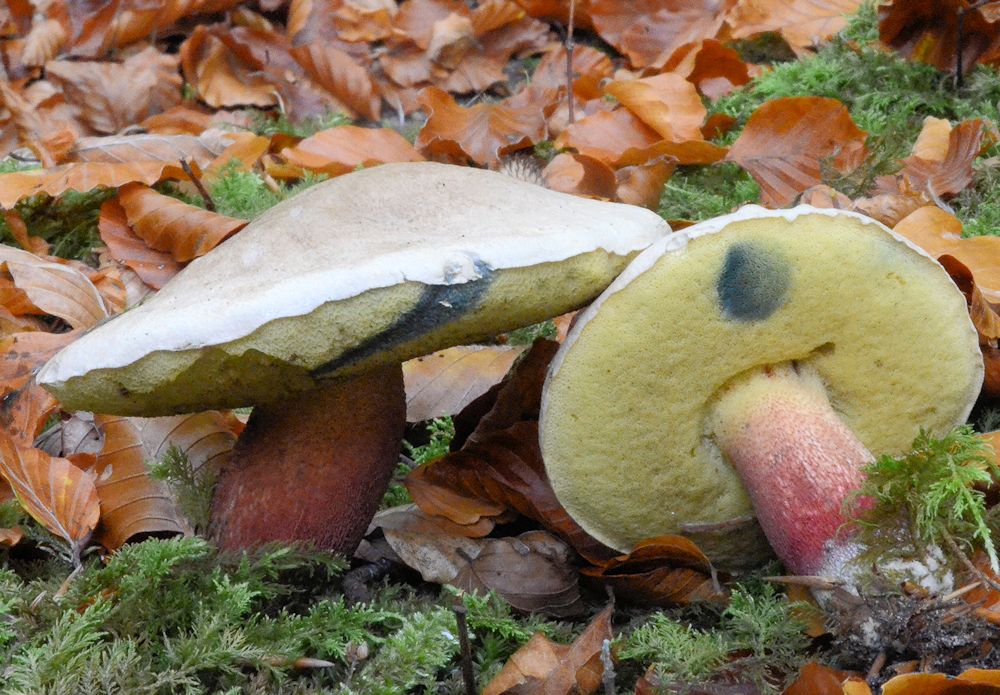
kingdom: Fungi
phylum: Basidiomycota
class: Agaricomycetes
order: Boletales
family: Boletaceae
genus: Caloboletus
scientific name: Caloboletus calopus
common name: skønfodet rørhat
